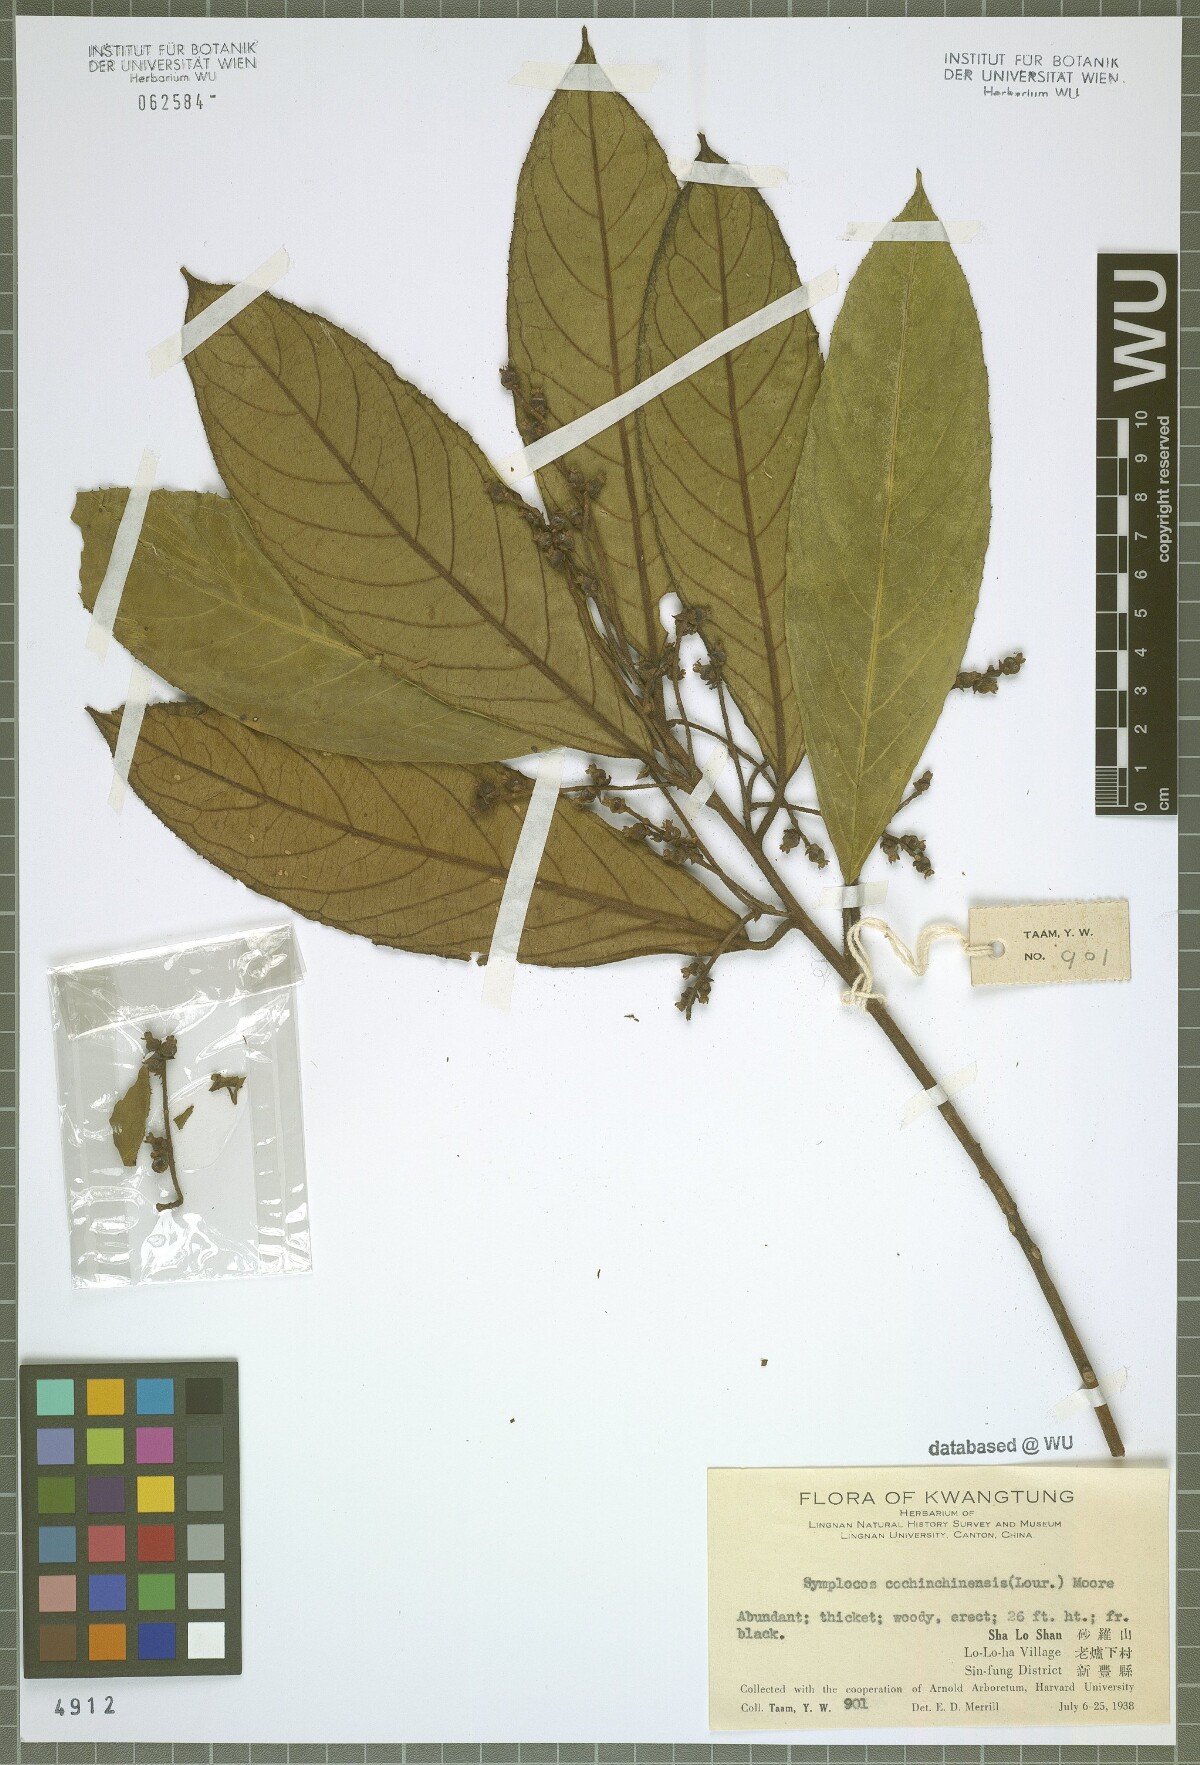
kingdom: Plantae
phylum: Tracheophyta
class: Magnoliopsida
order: Ericales
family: Symplocaceae
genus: Symplocos
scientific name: Symplocos cochinchinensis
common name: Buff hazelwood
